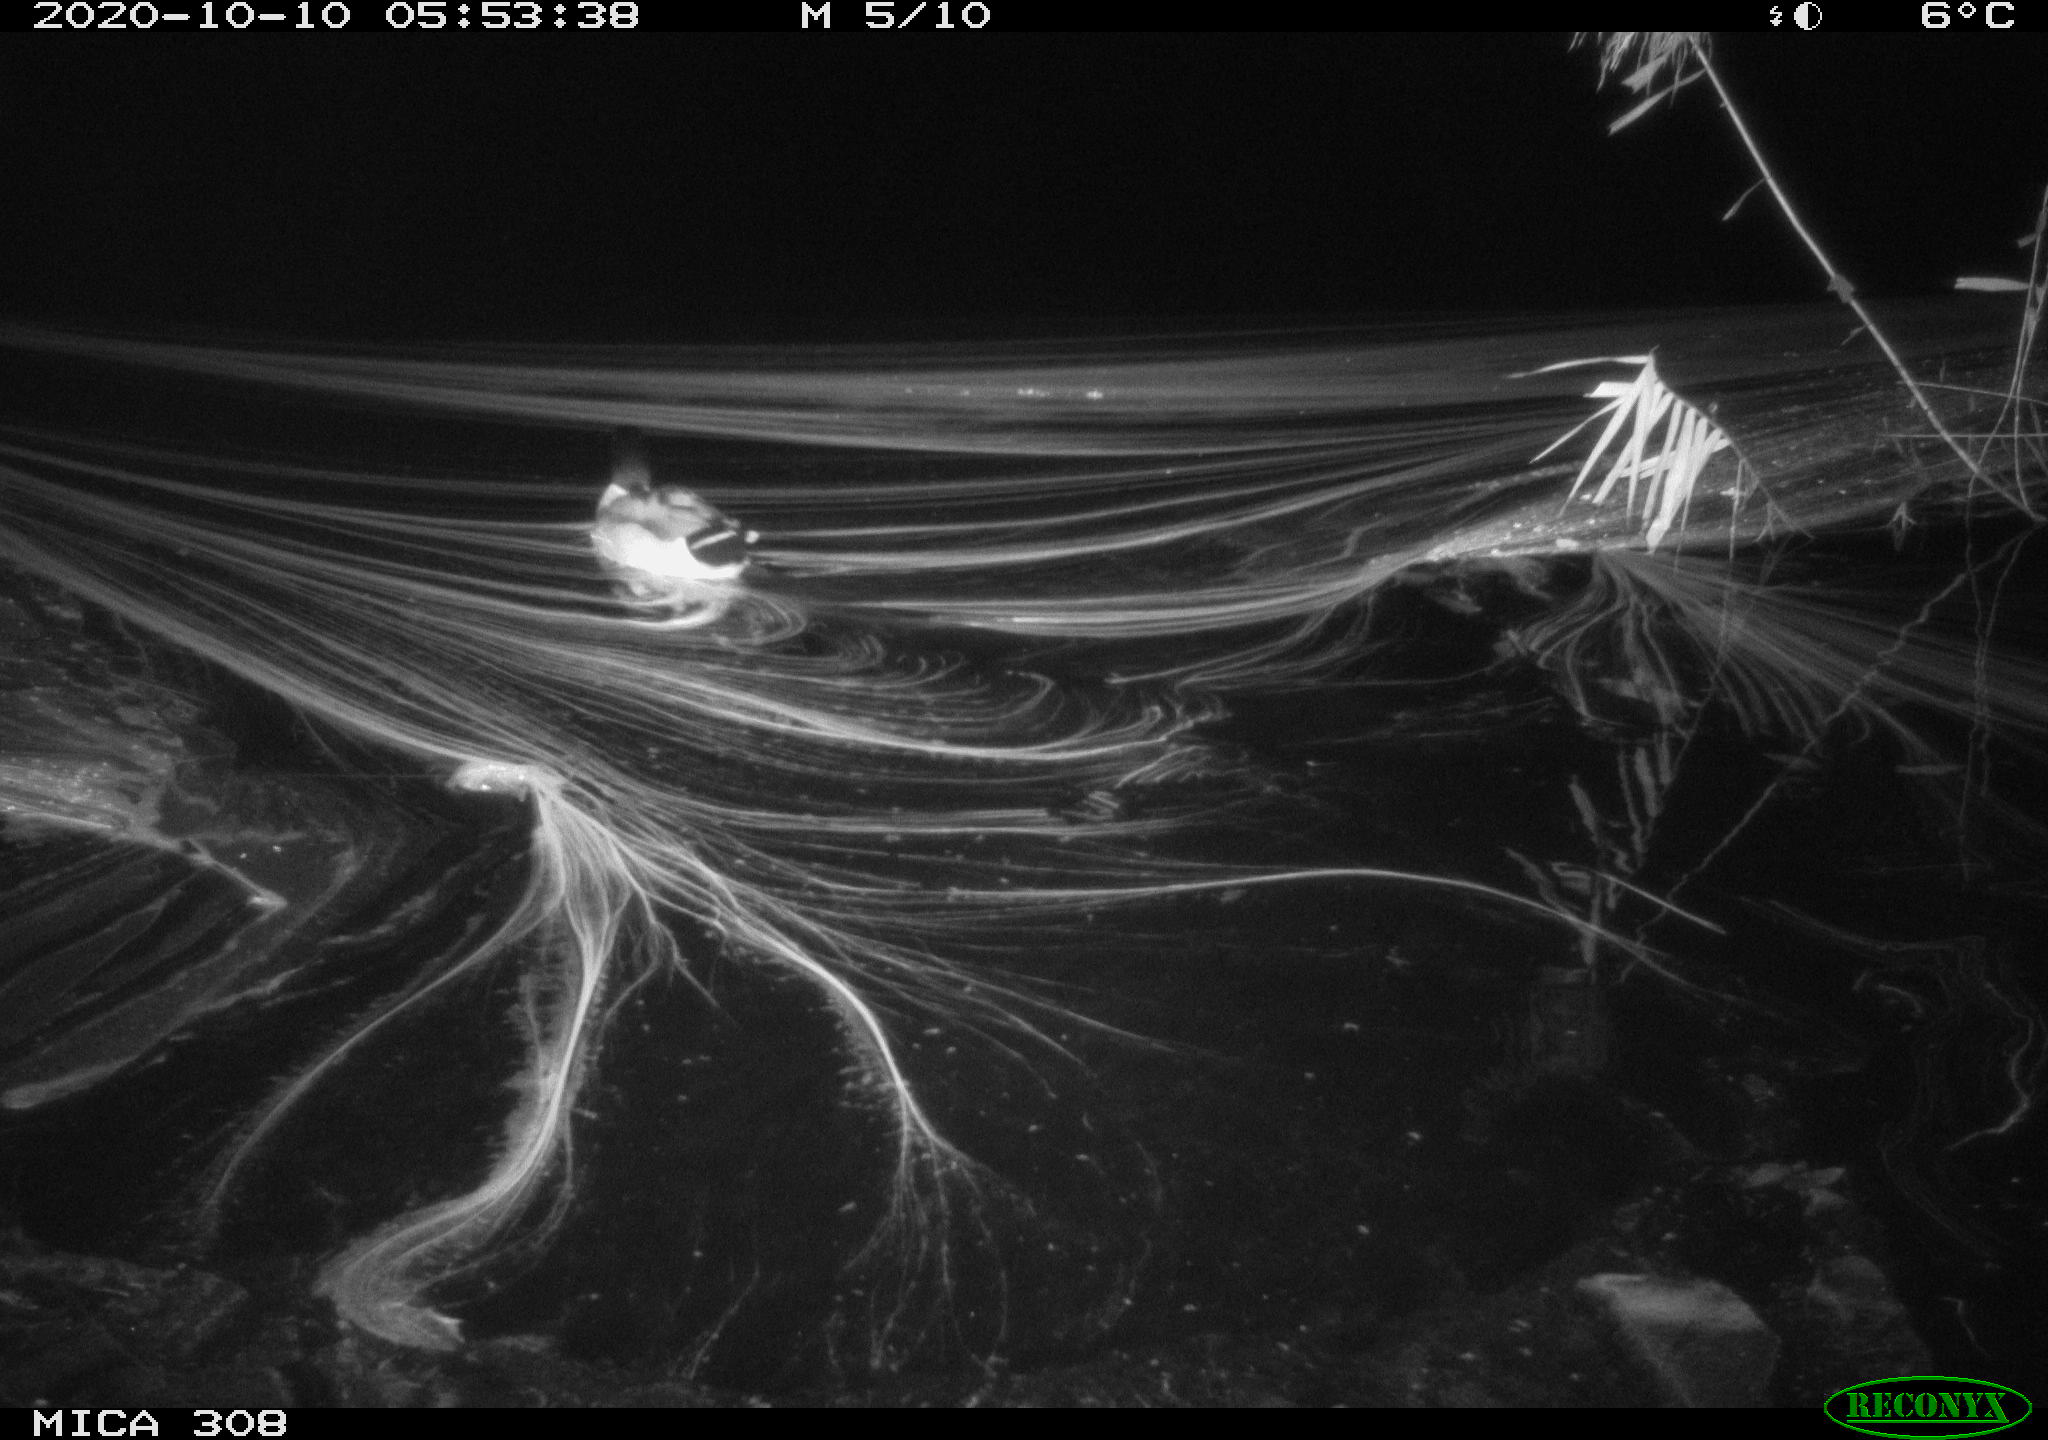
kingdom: Animalia
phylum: Chordata
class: Aves
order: Anseriformes
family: Anatidae
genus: Anas
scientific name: Anas platyrhynchos
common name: Mallard
